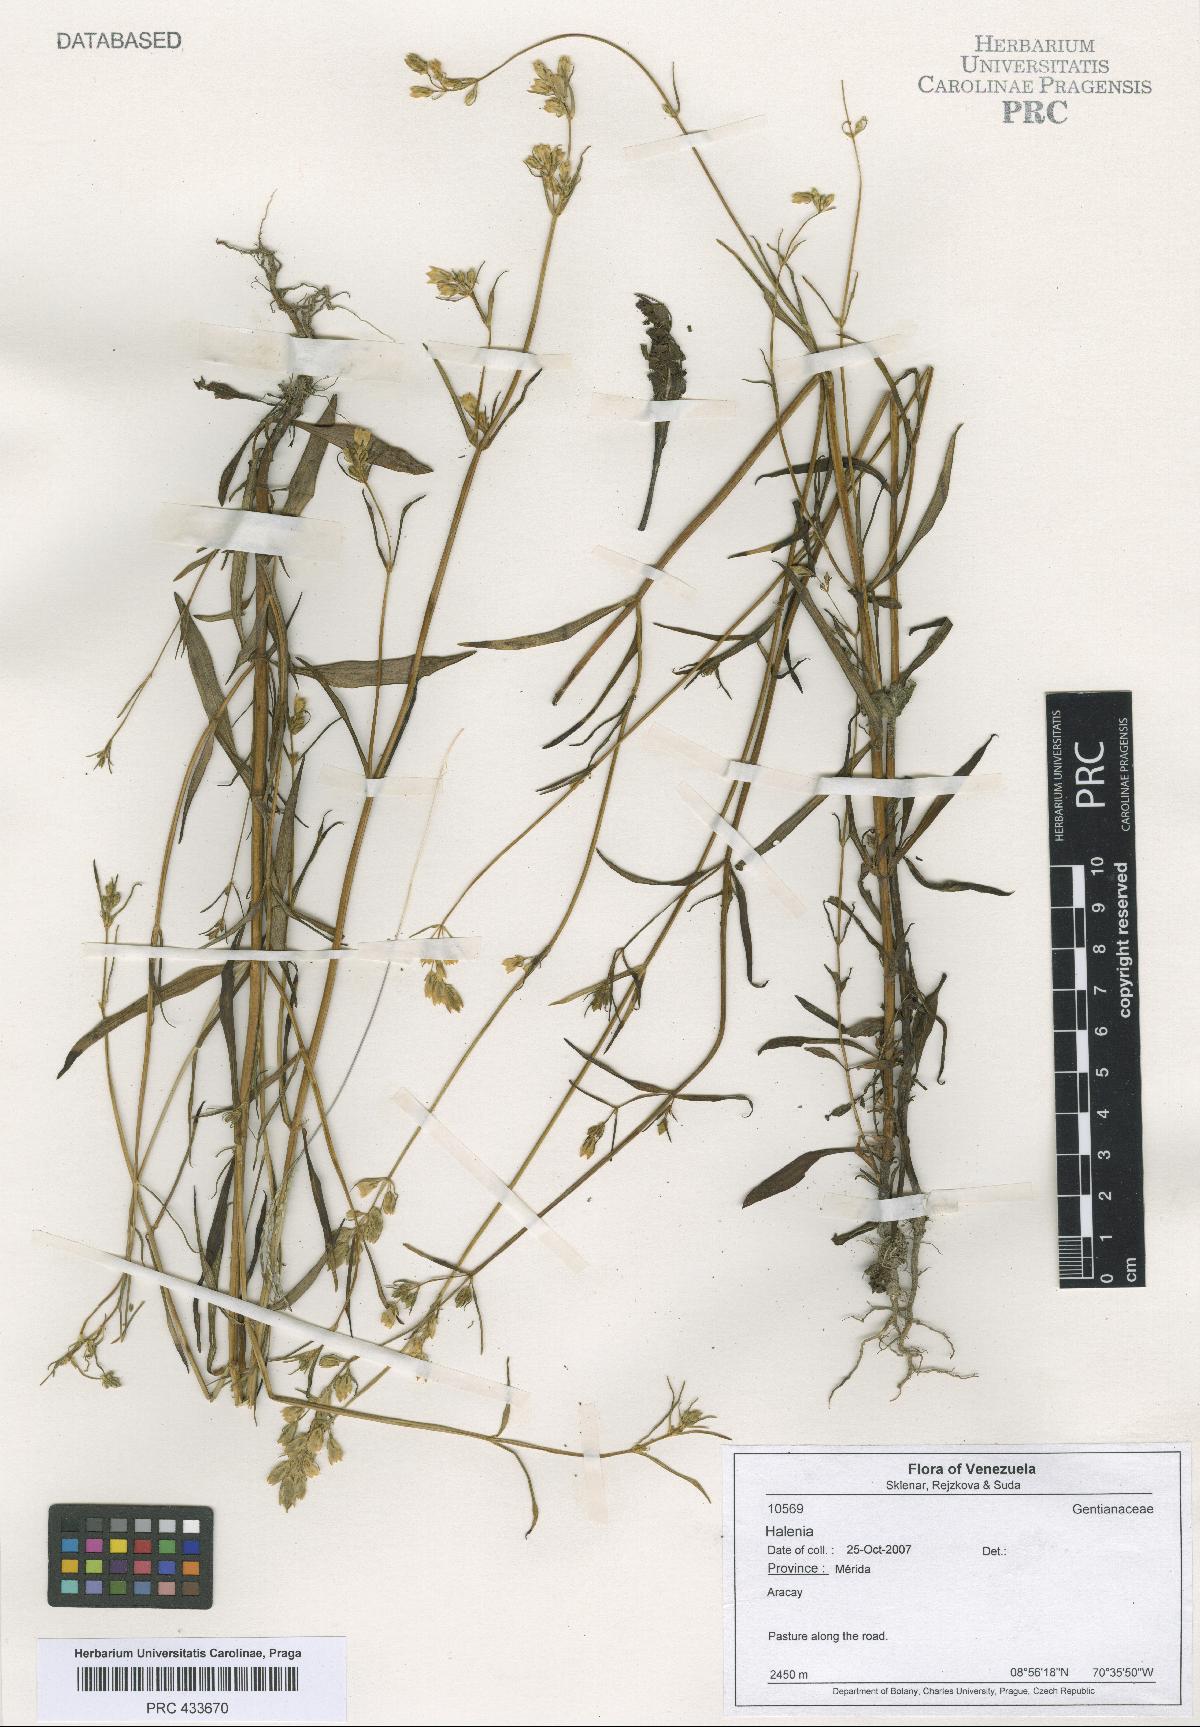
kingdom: Plantae
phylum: Tracheophyta
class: Magnoliopsida
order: Gentianales
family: Gentianaceae
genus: Halenia
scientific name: Halenia
